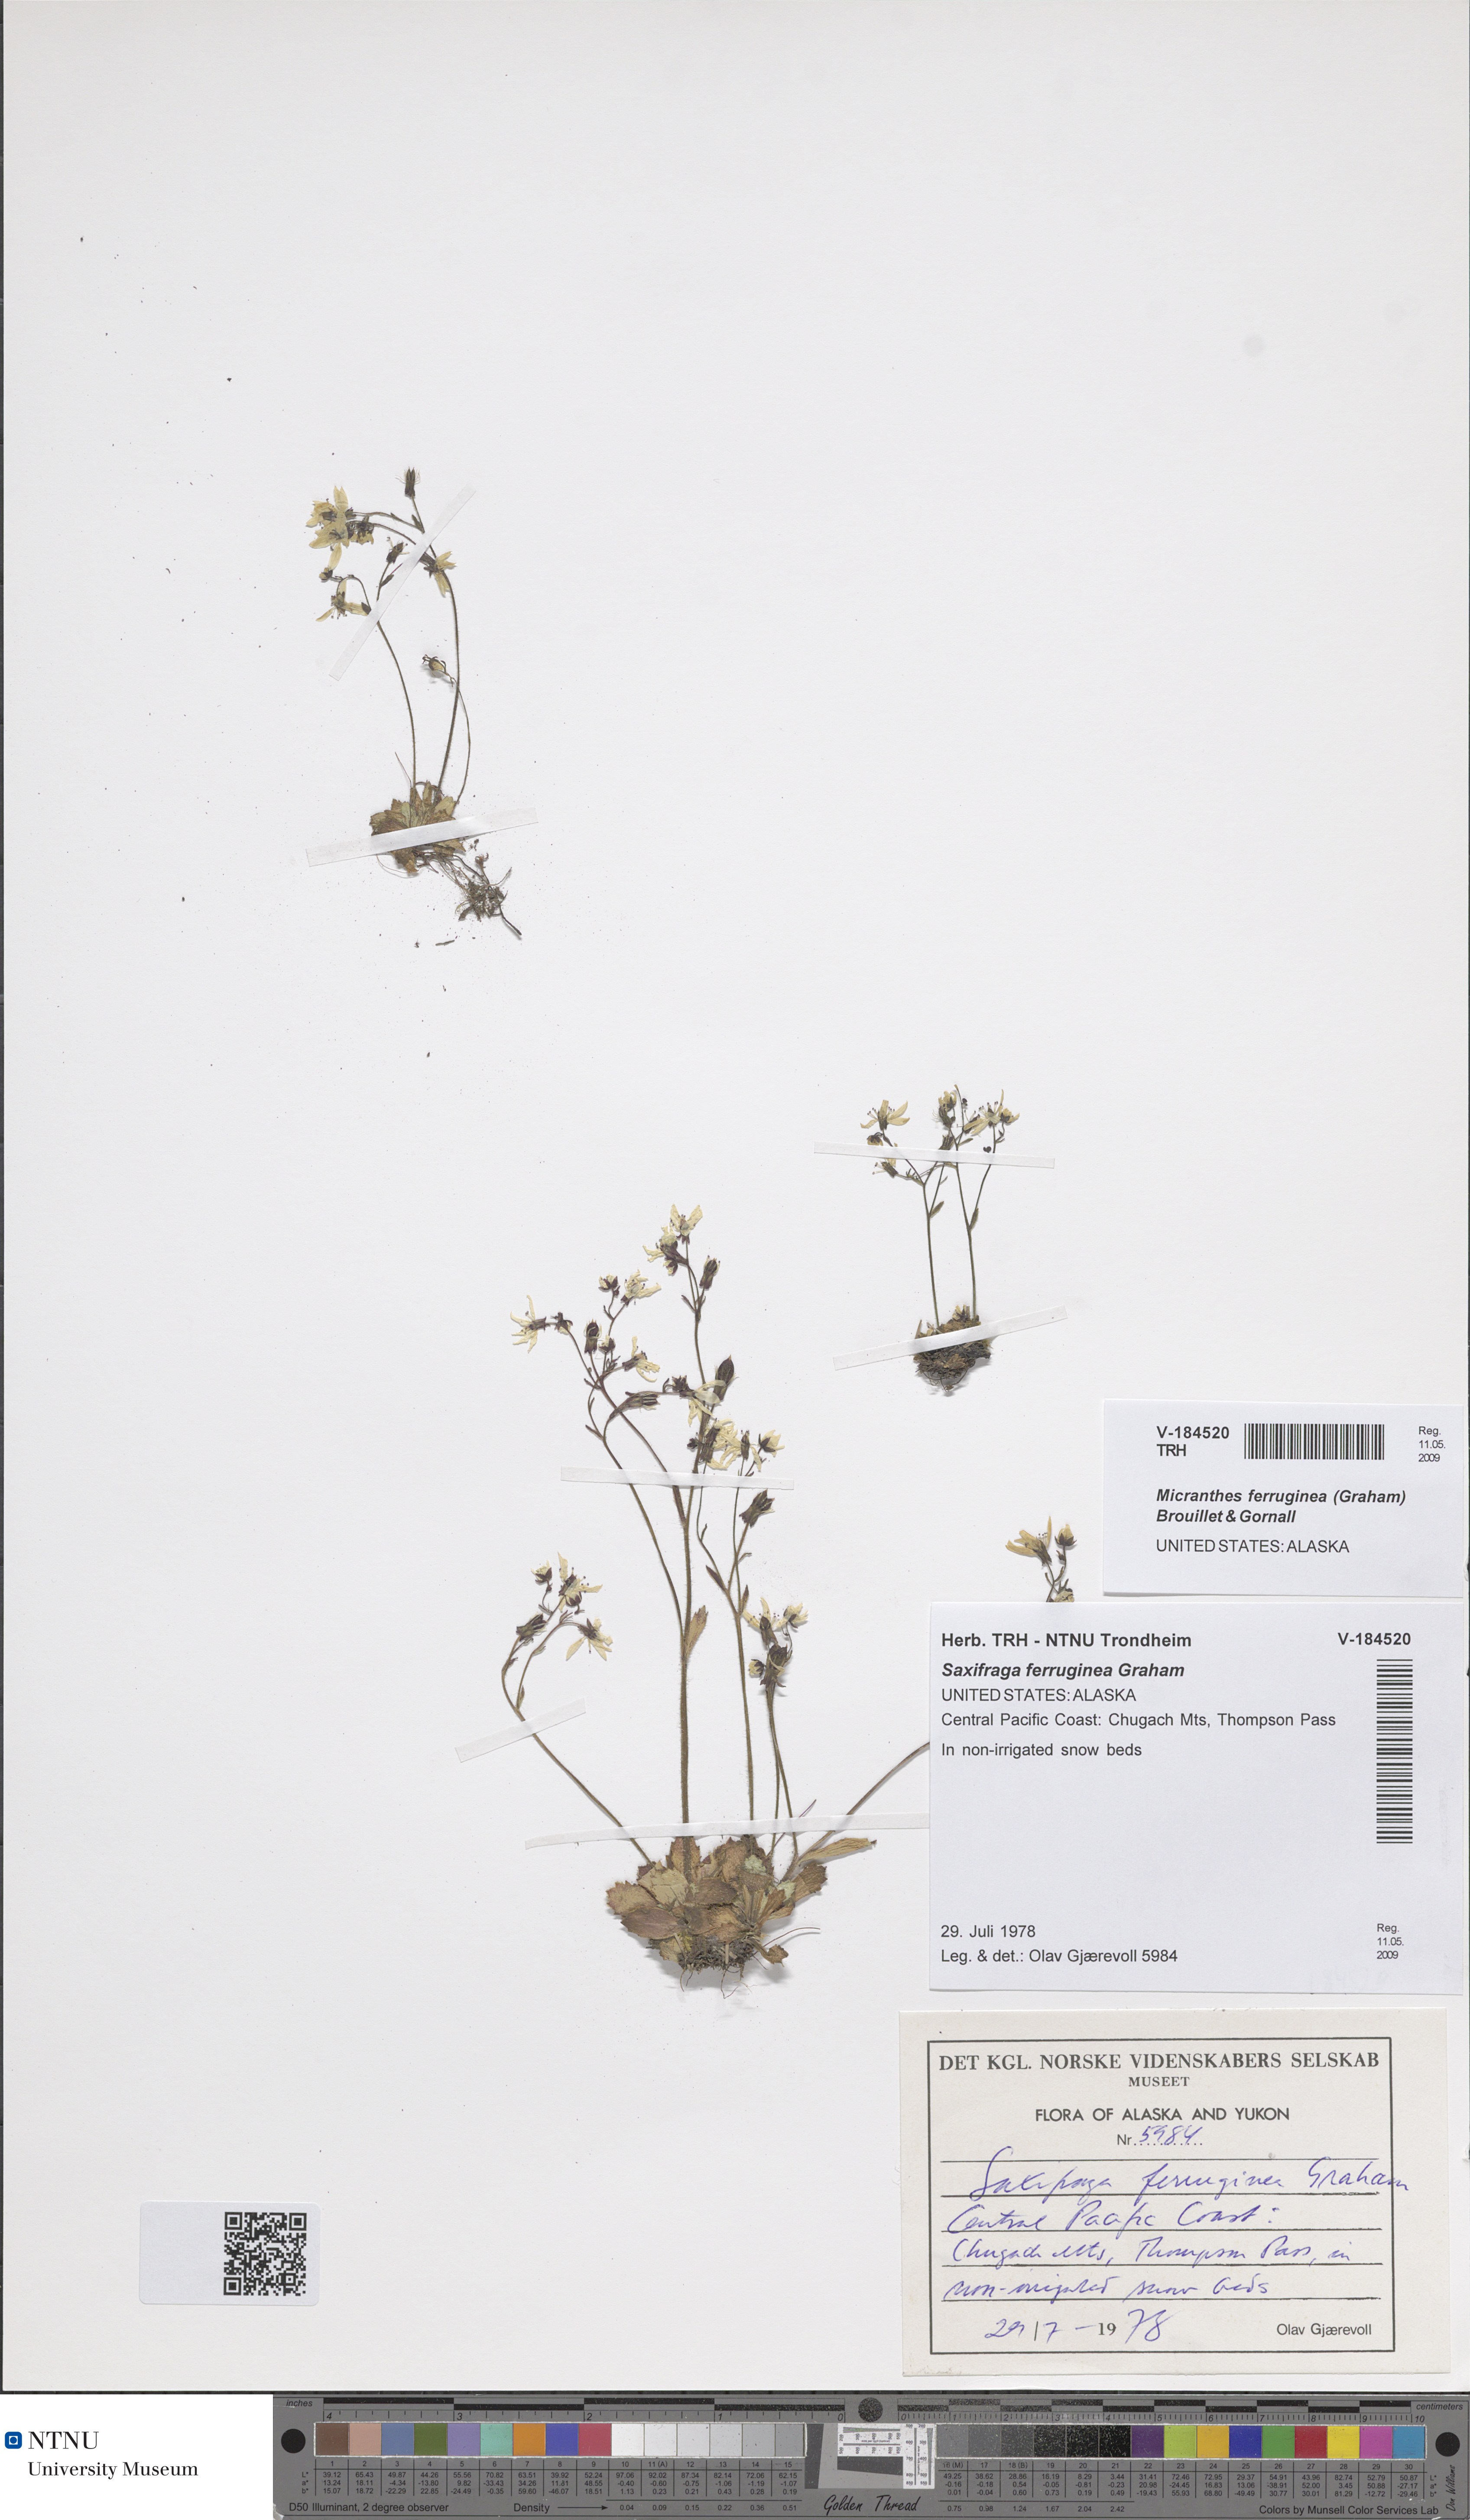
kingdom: Plantae
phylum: Tracheophyta
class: Magnoliopsida
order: Saxifragales
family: Saxifragaceae
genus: Micranthes
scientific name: Micranthes ferruginea
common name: Rusty saxifrage
